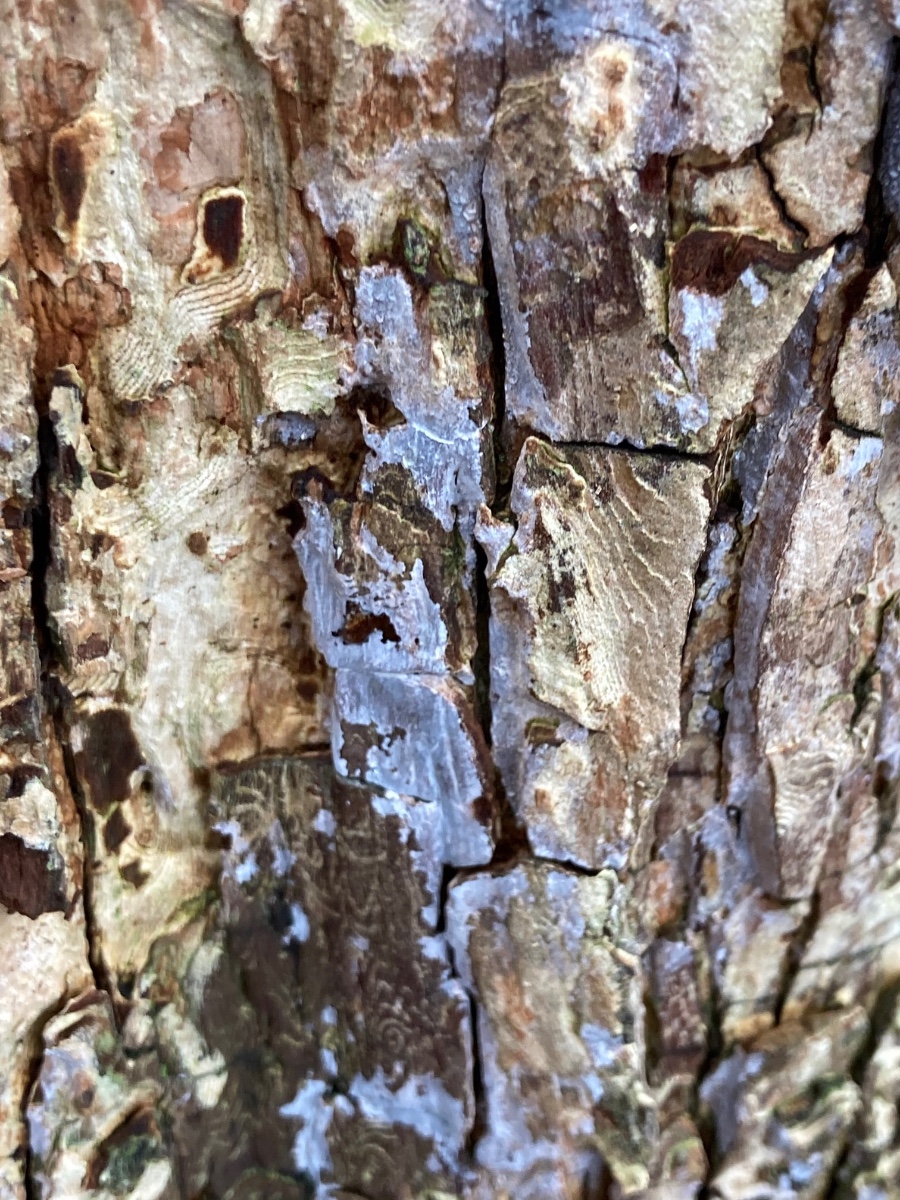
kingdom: Fungi
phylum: Basidiomycota
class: Agaricomycetes
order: Agaricales
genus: Dendrothele
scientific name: Dendrothele acerina
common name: navr-kalkplet
